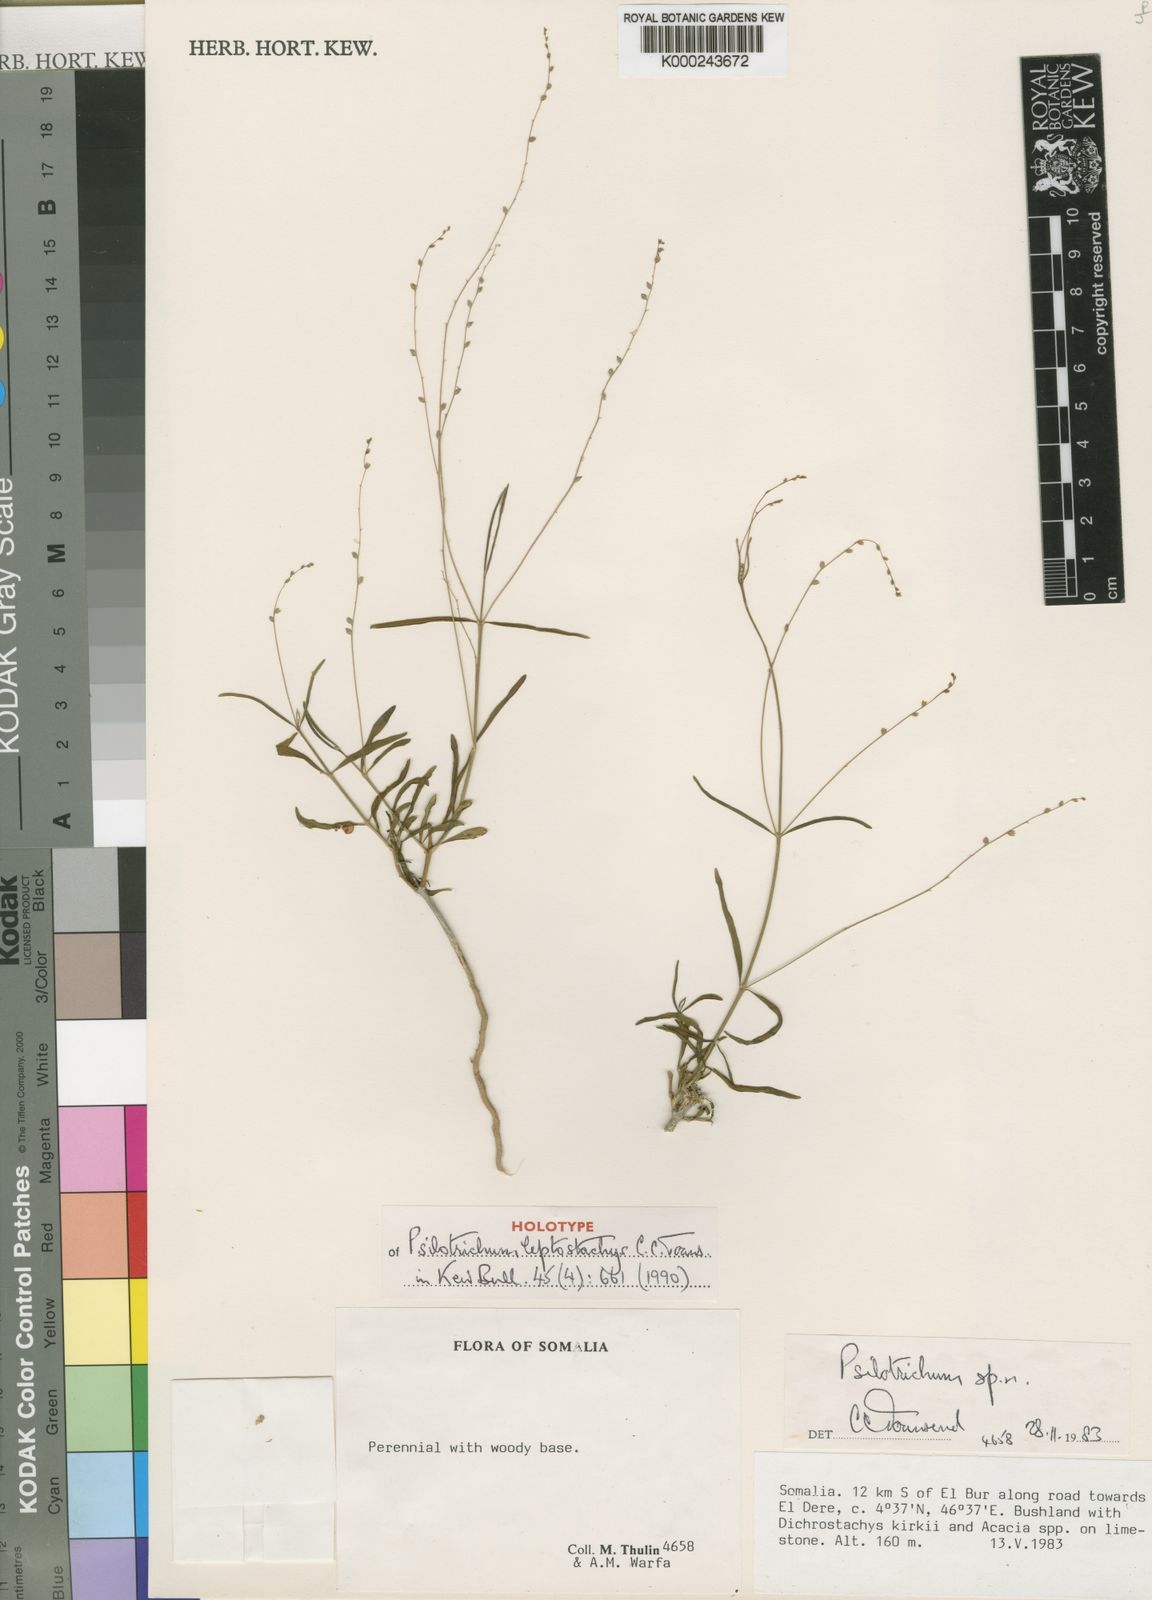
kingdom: Plantae
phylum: Tracheophyta
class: Magnoliopsida
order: Caryophyllales
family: Amaranthaceae
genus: Psilotrichum
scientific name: Psilotrichum leptostachys
